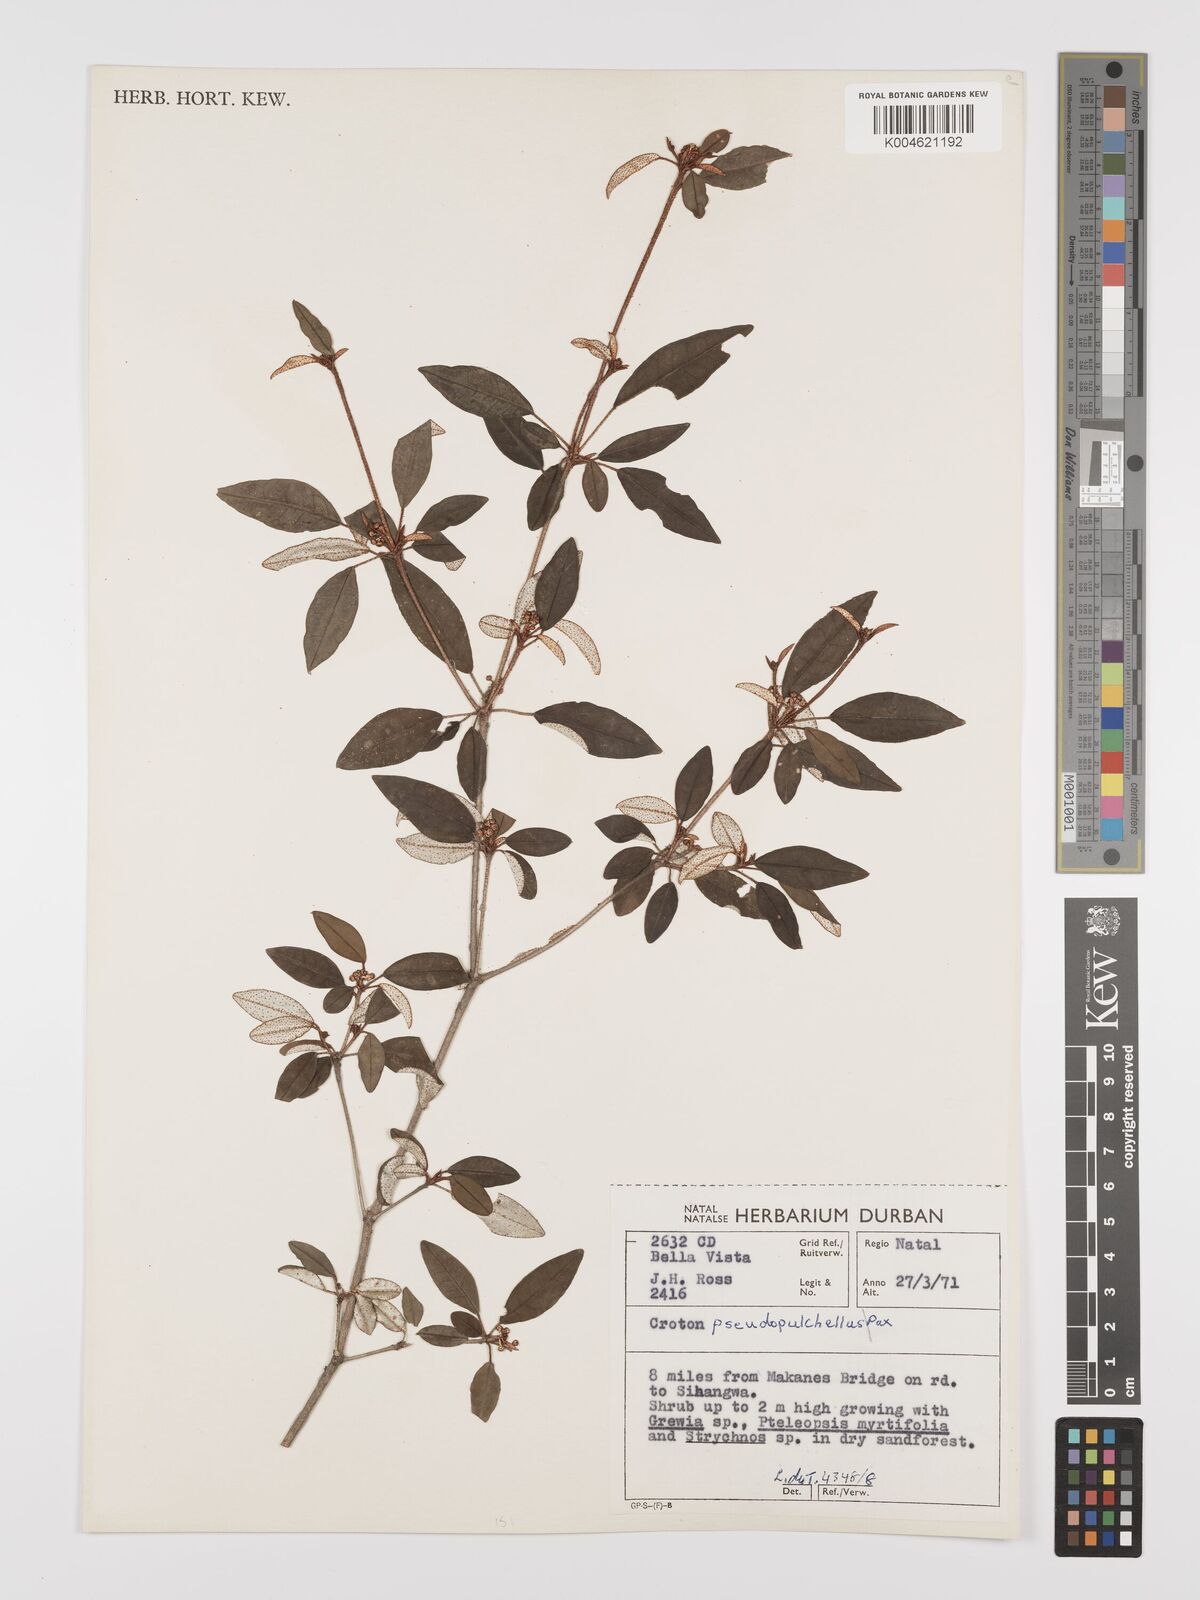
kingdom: Plantae
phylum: Tracheophyta
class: Magnoliopsida
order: Malpighiales
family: Euphorbiaceae
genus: Croton
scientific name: Croton pseudopulchellus
